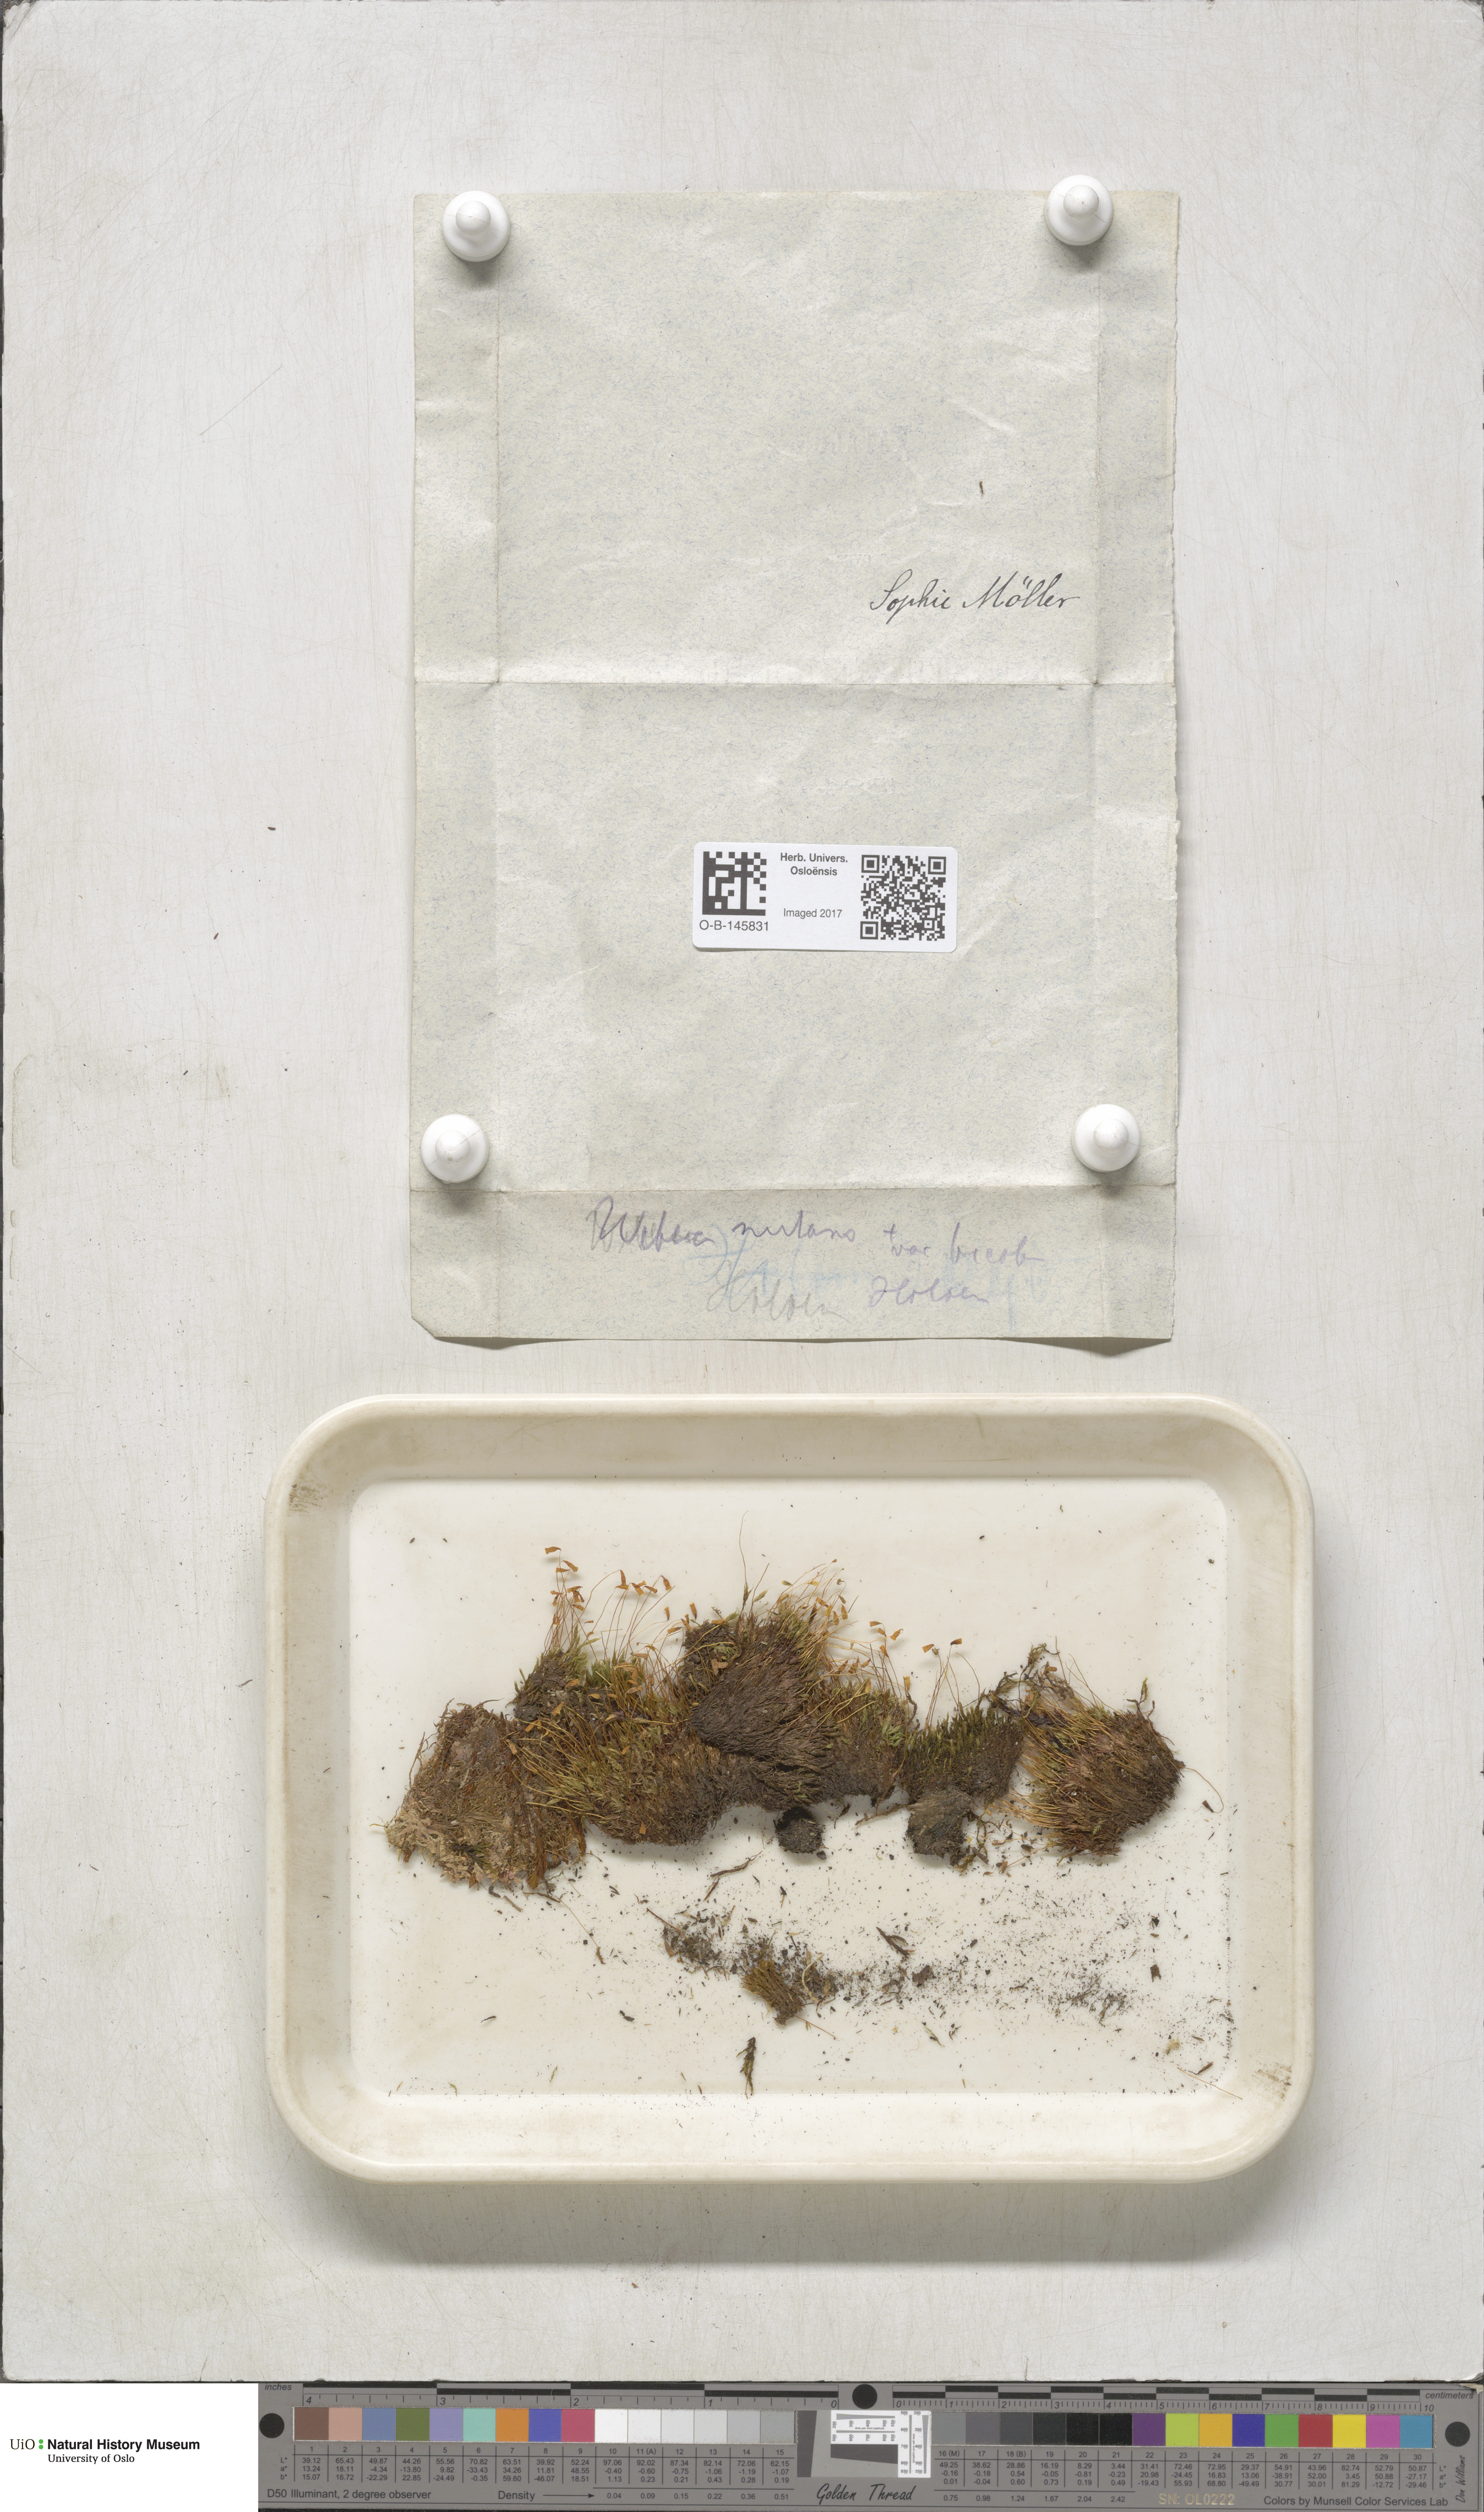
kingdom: Plantae
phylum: Bryophyta
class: Bryopsida
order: Bryales
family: Mniaceae
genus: Pohlia
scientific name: Pohlia nutans
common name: Nodding thread-moss
